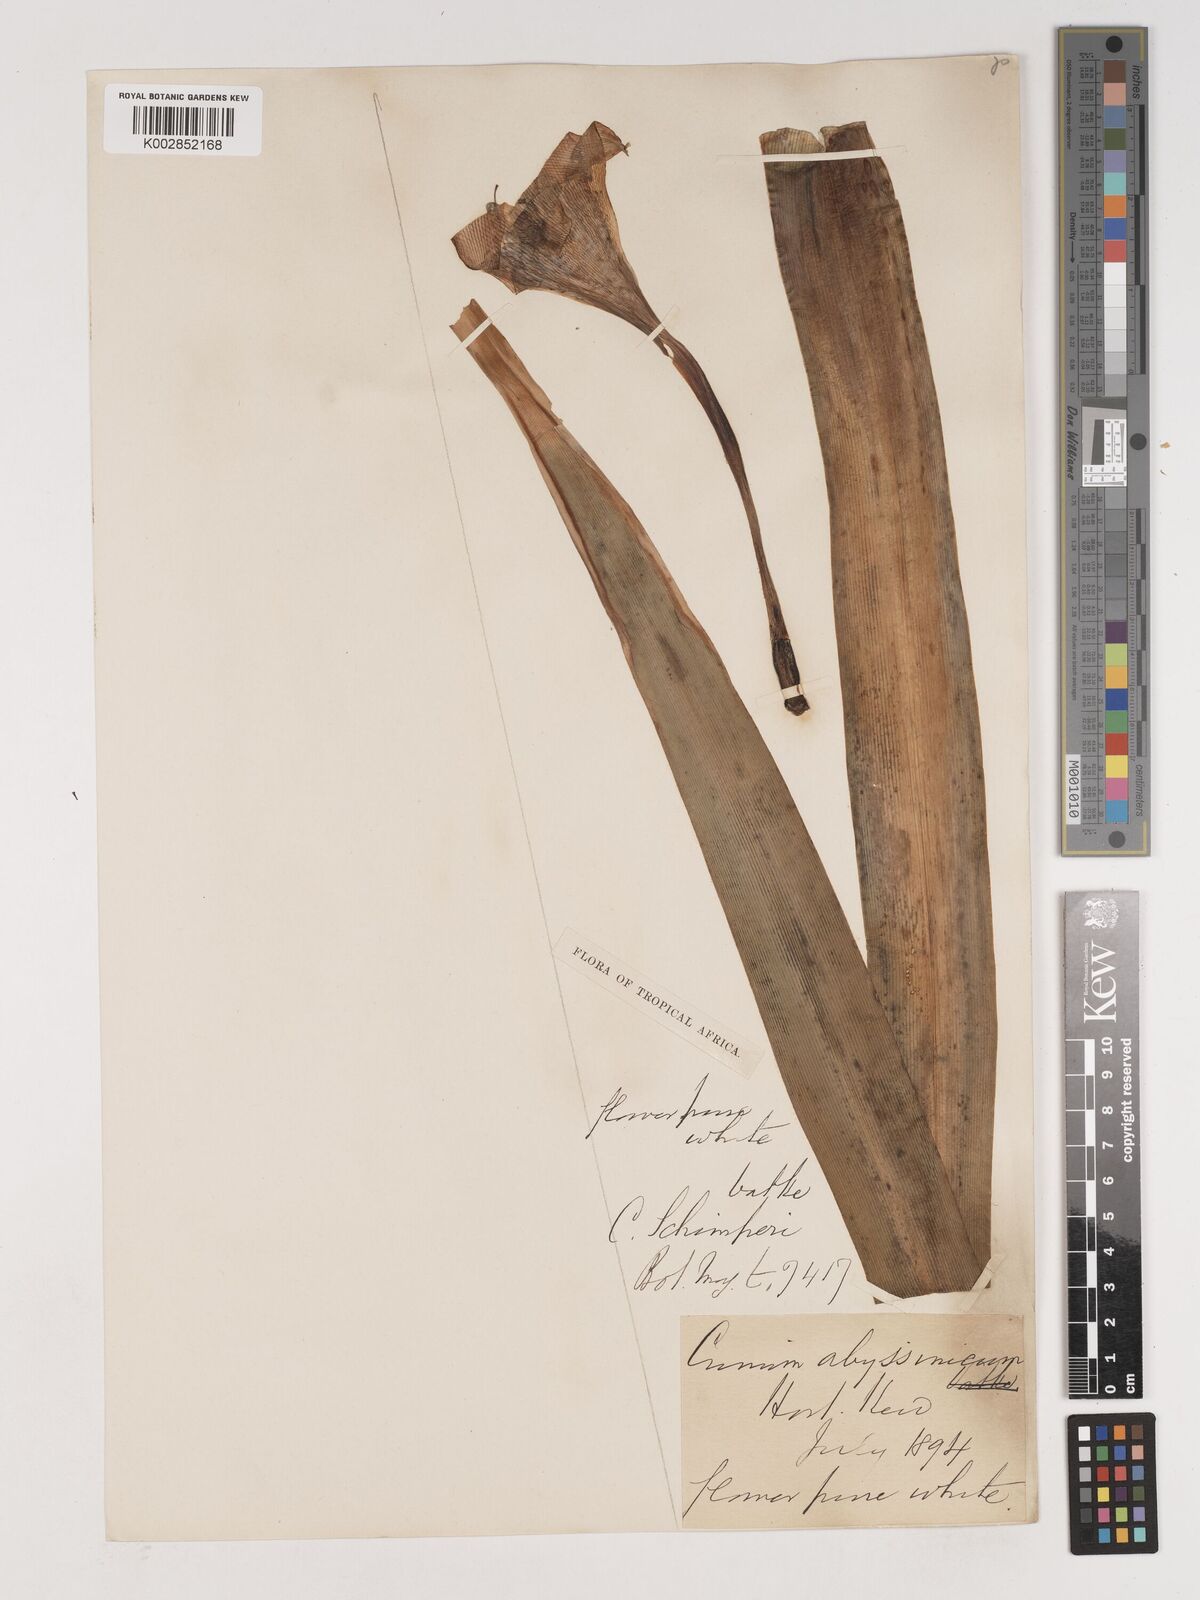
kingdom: Plantae
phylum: Tracheophyta
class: Liliopsida
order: Asparagales
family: Amaryllidaceae
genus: Crinum
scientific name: Crinum abyssinicum
